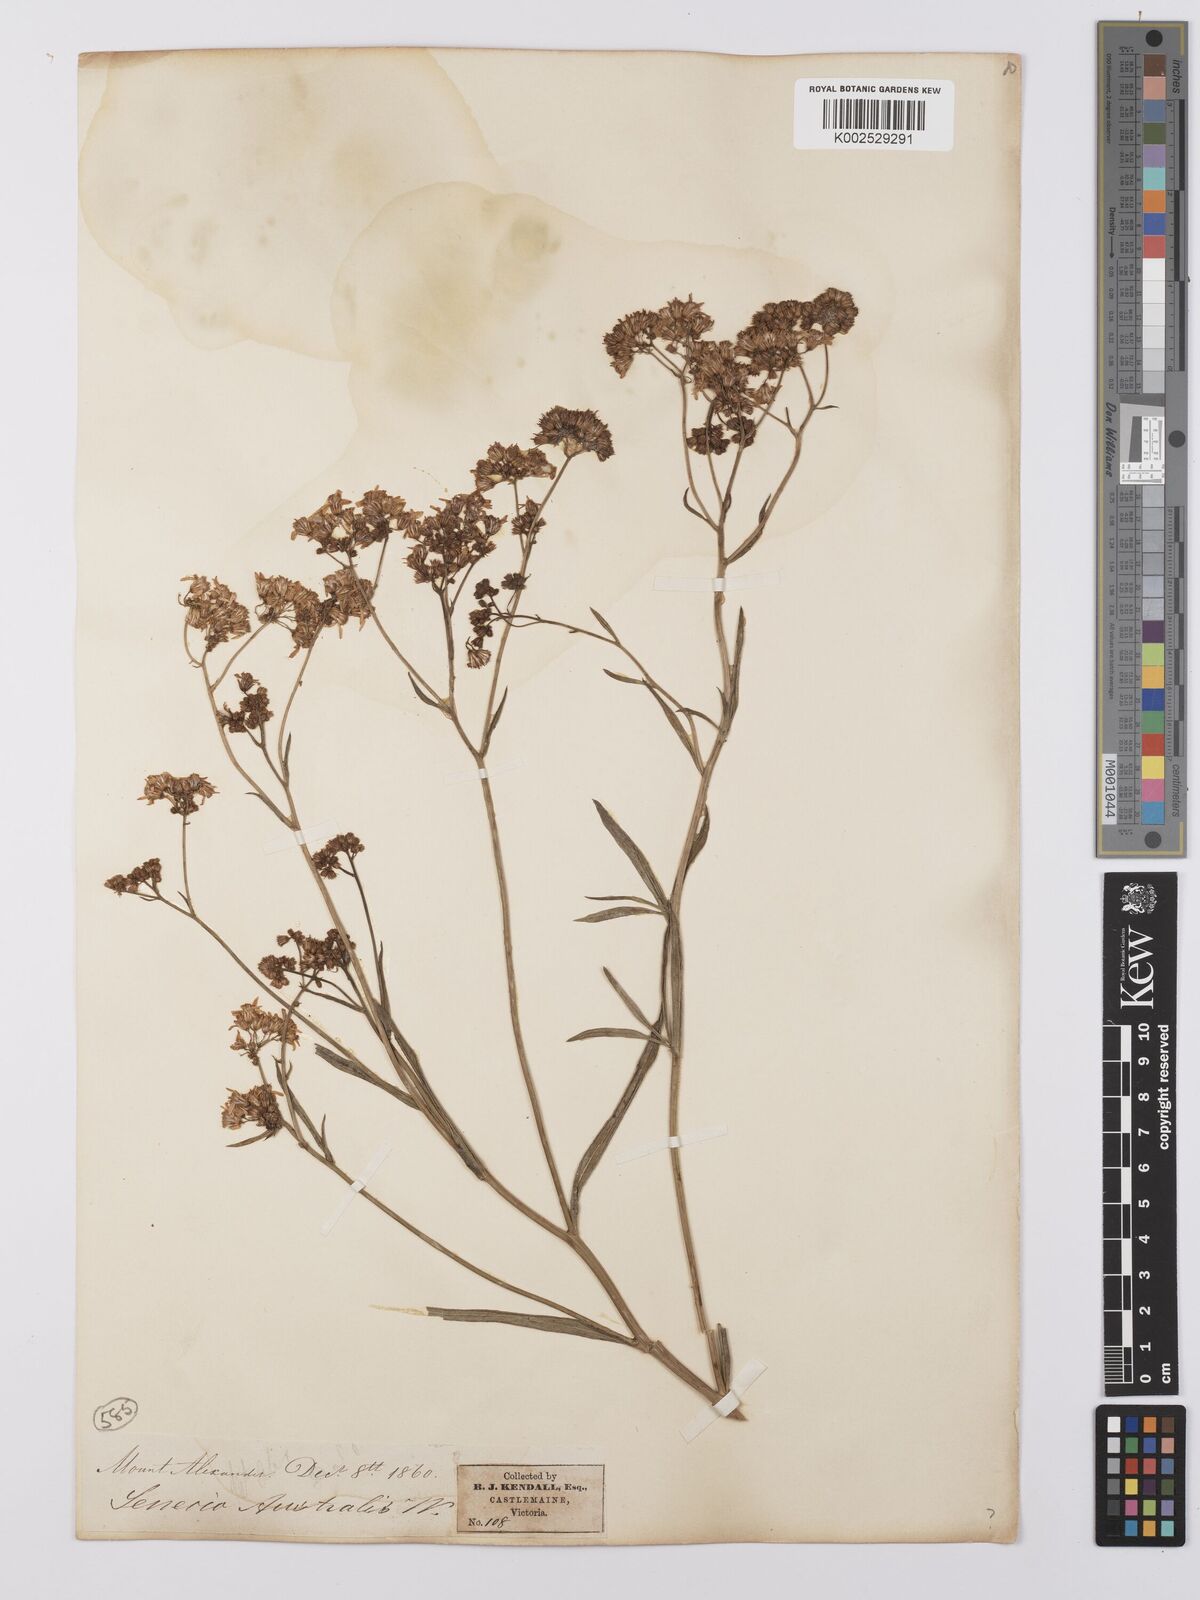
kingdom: Plantae
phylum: Tracheophyta
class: Magnoliopsida
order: Asterales
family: Asteraceae
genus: Senecio
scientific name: Senecio
